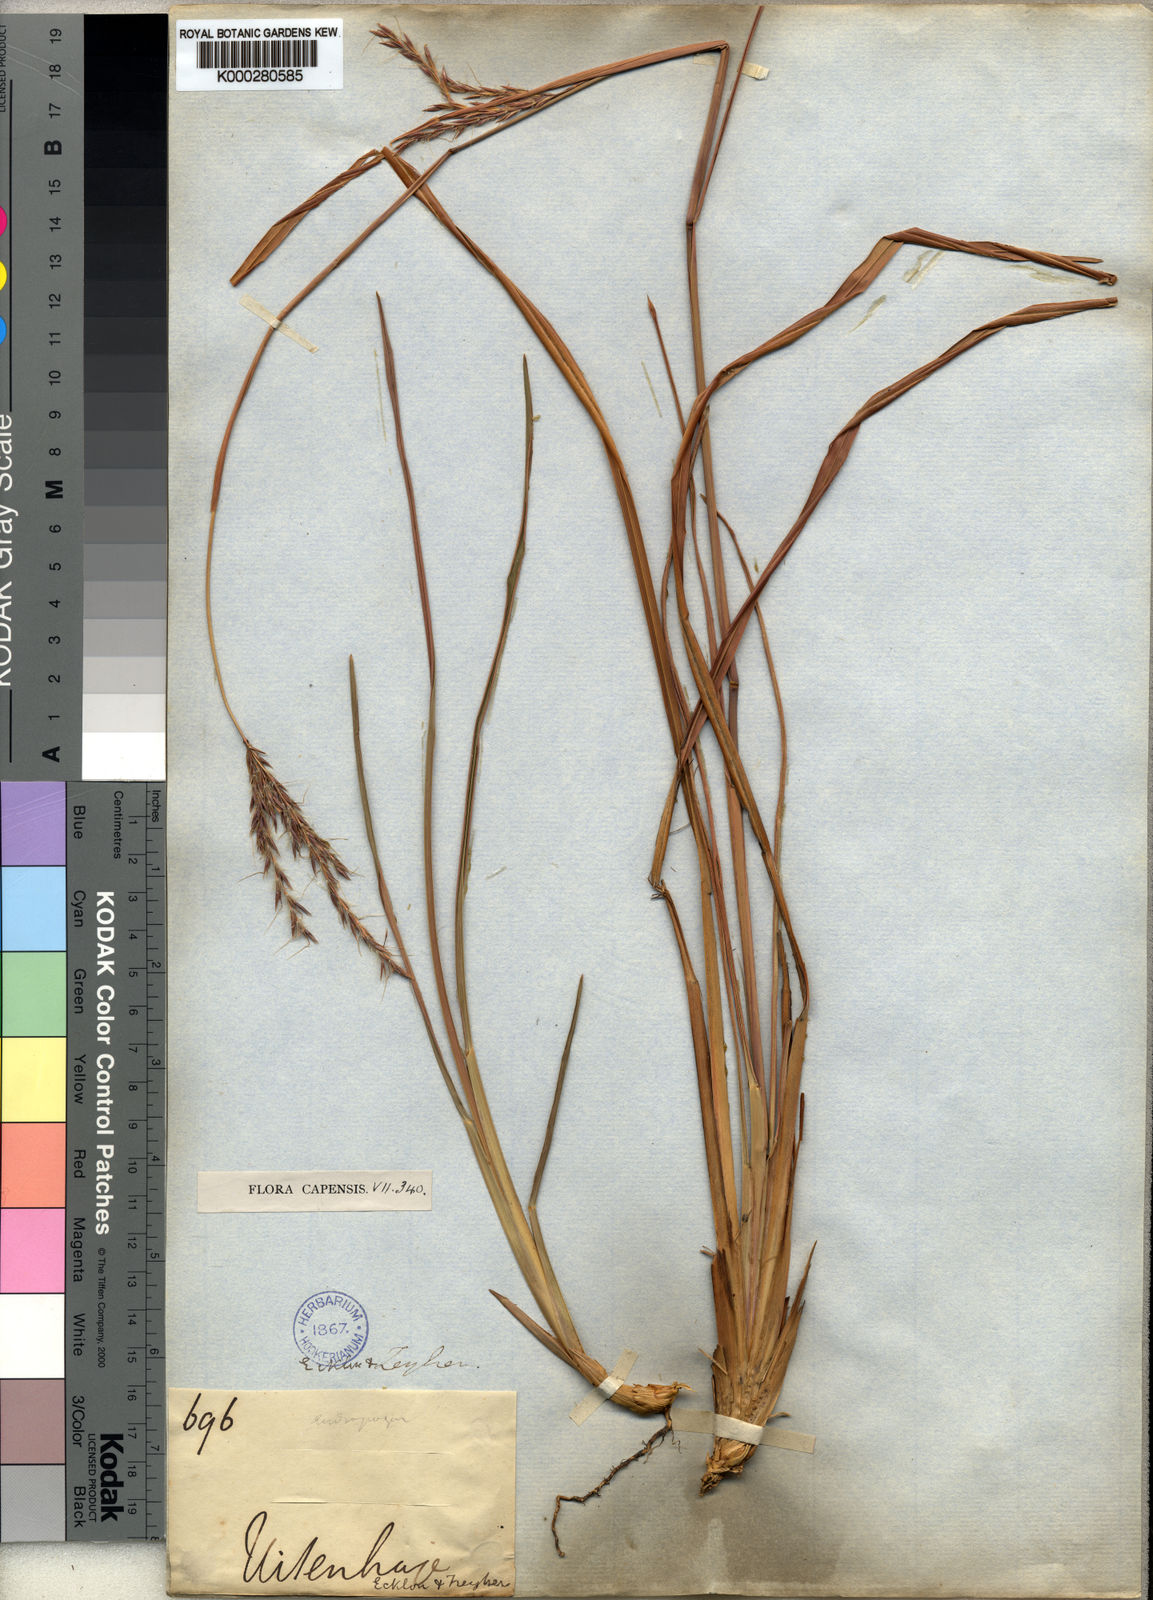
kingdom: Plantae
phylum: Tracheophyta
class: Liliopsida
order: Poales
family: Poaceae
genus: Andropogon
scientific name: Andropogon appendiculatus
